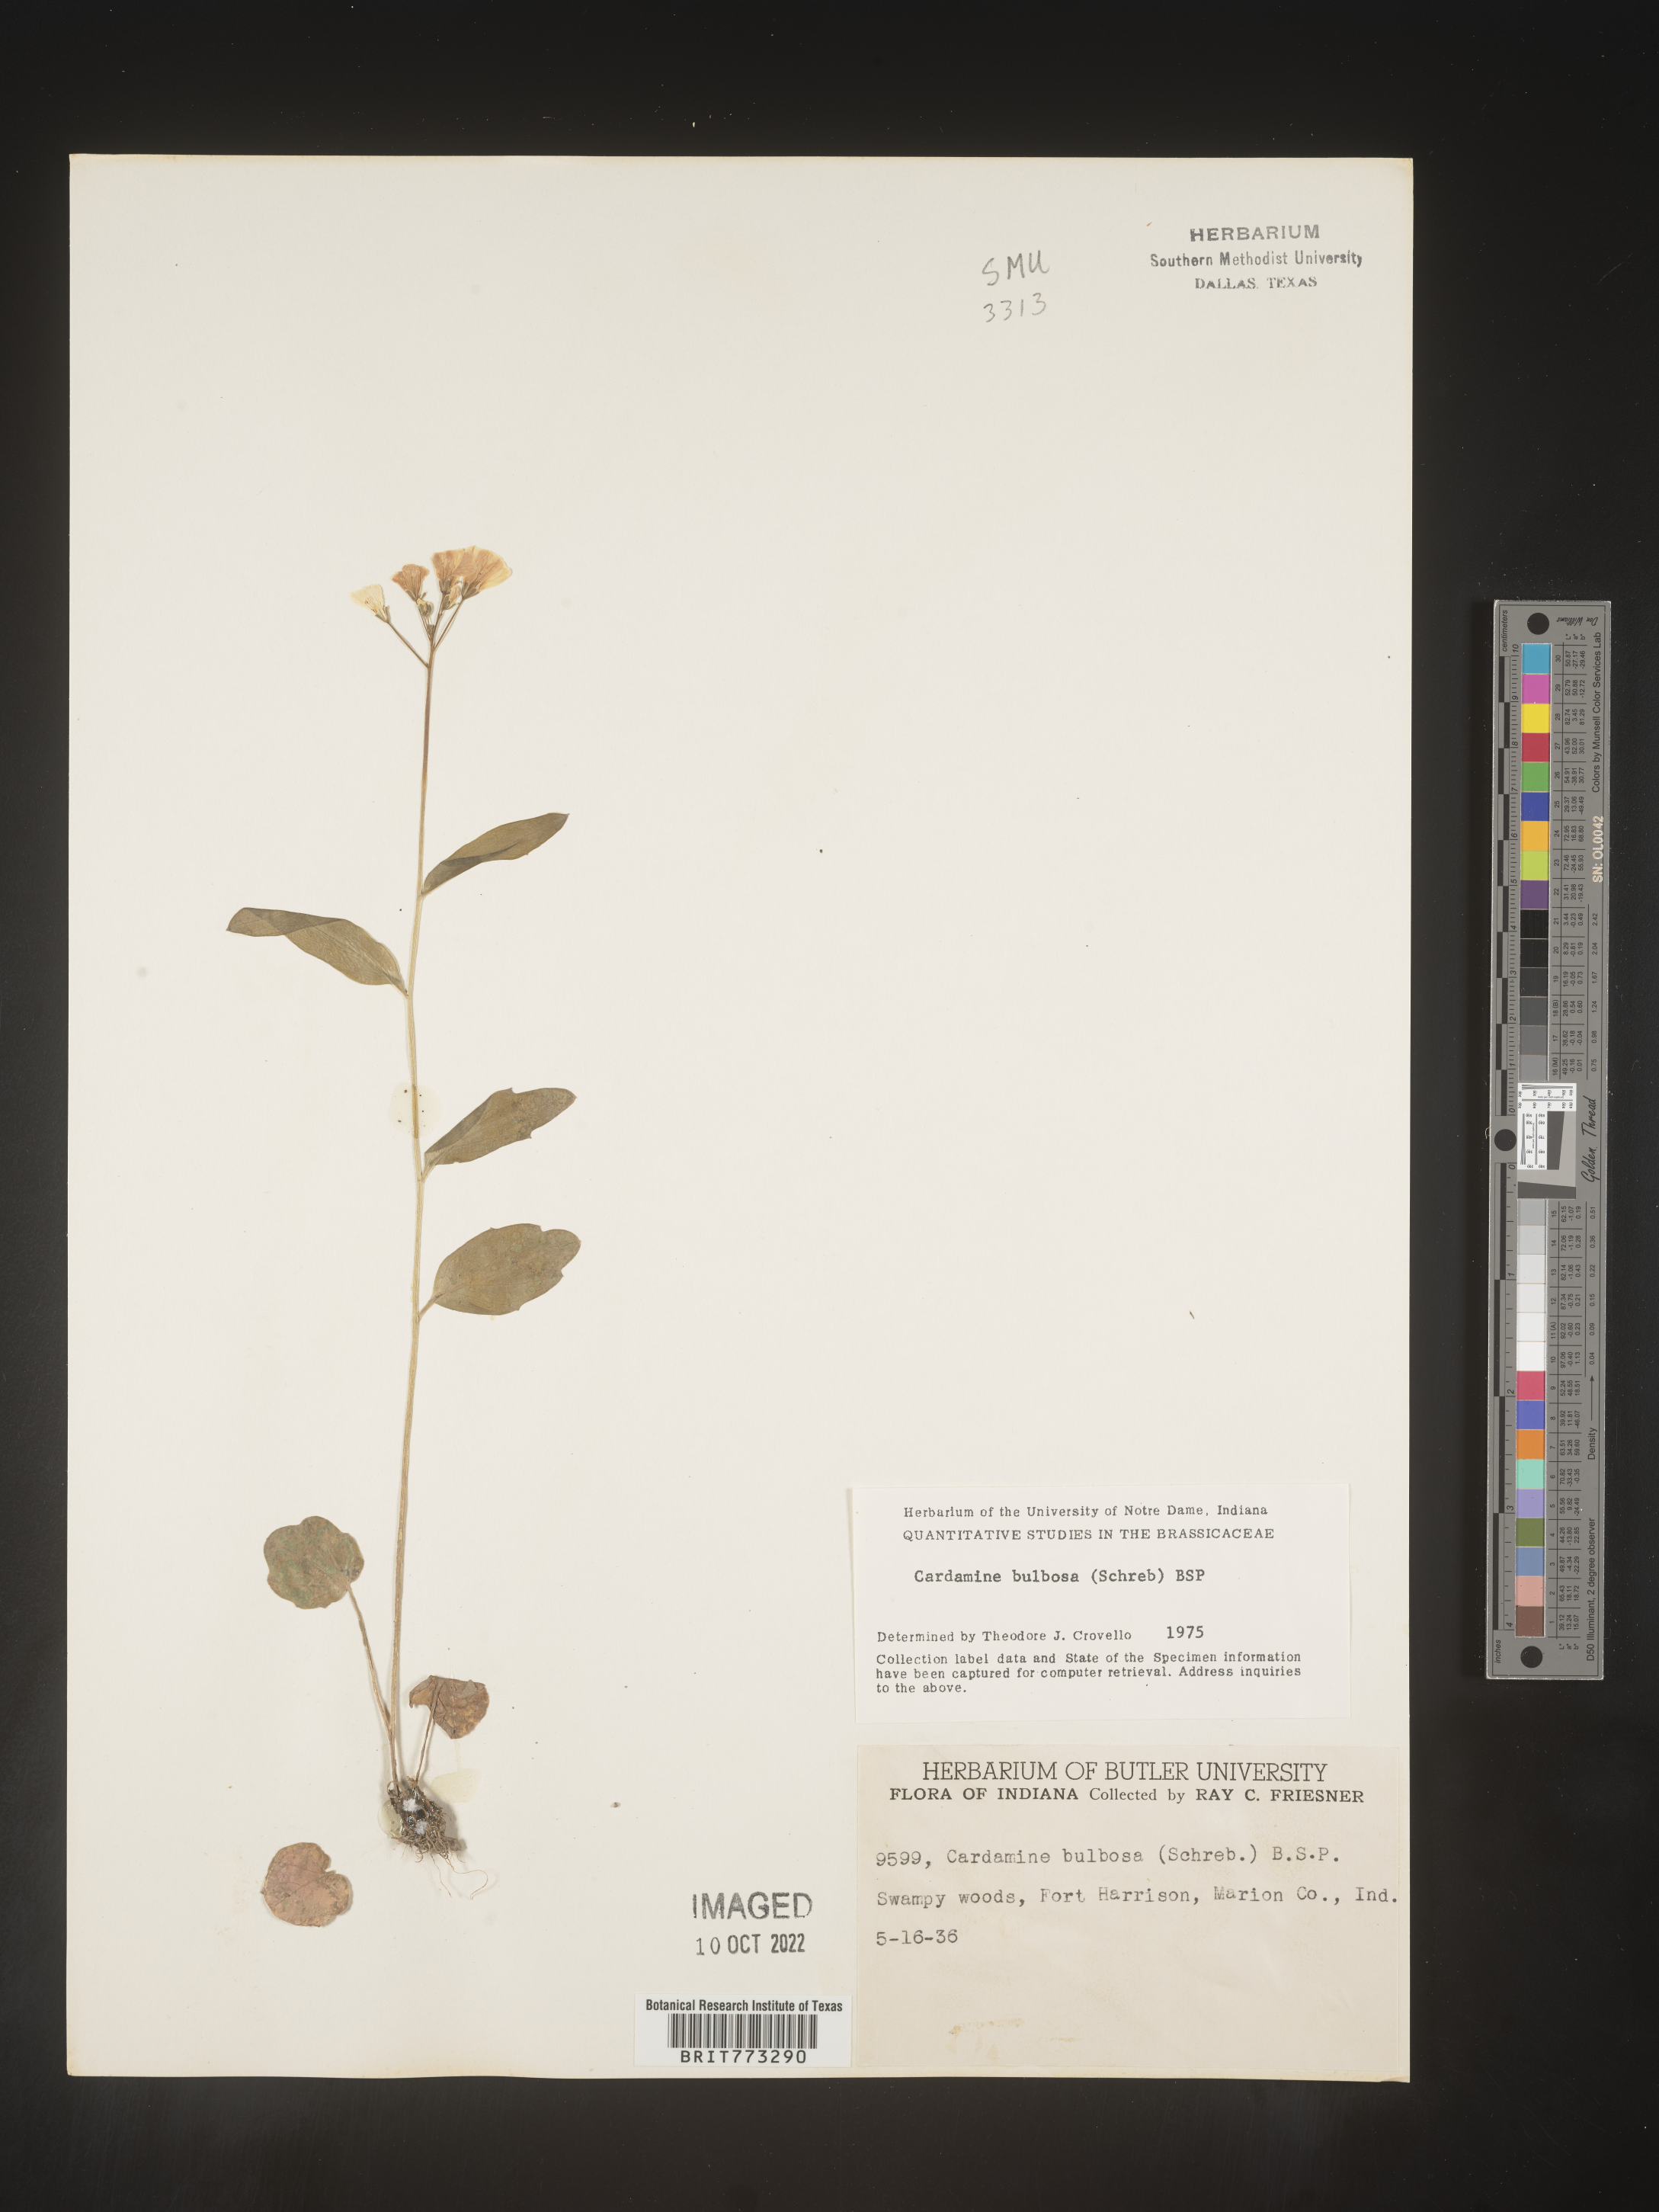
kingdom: Plantae
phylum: Tracheophyta
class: Magnoliopsida
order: Brassicales
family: Brassicaceae
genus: Cardamine
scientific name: Cardamine bulbosa
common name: Spring cress
